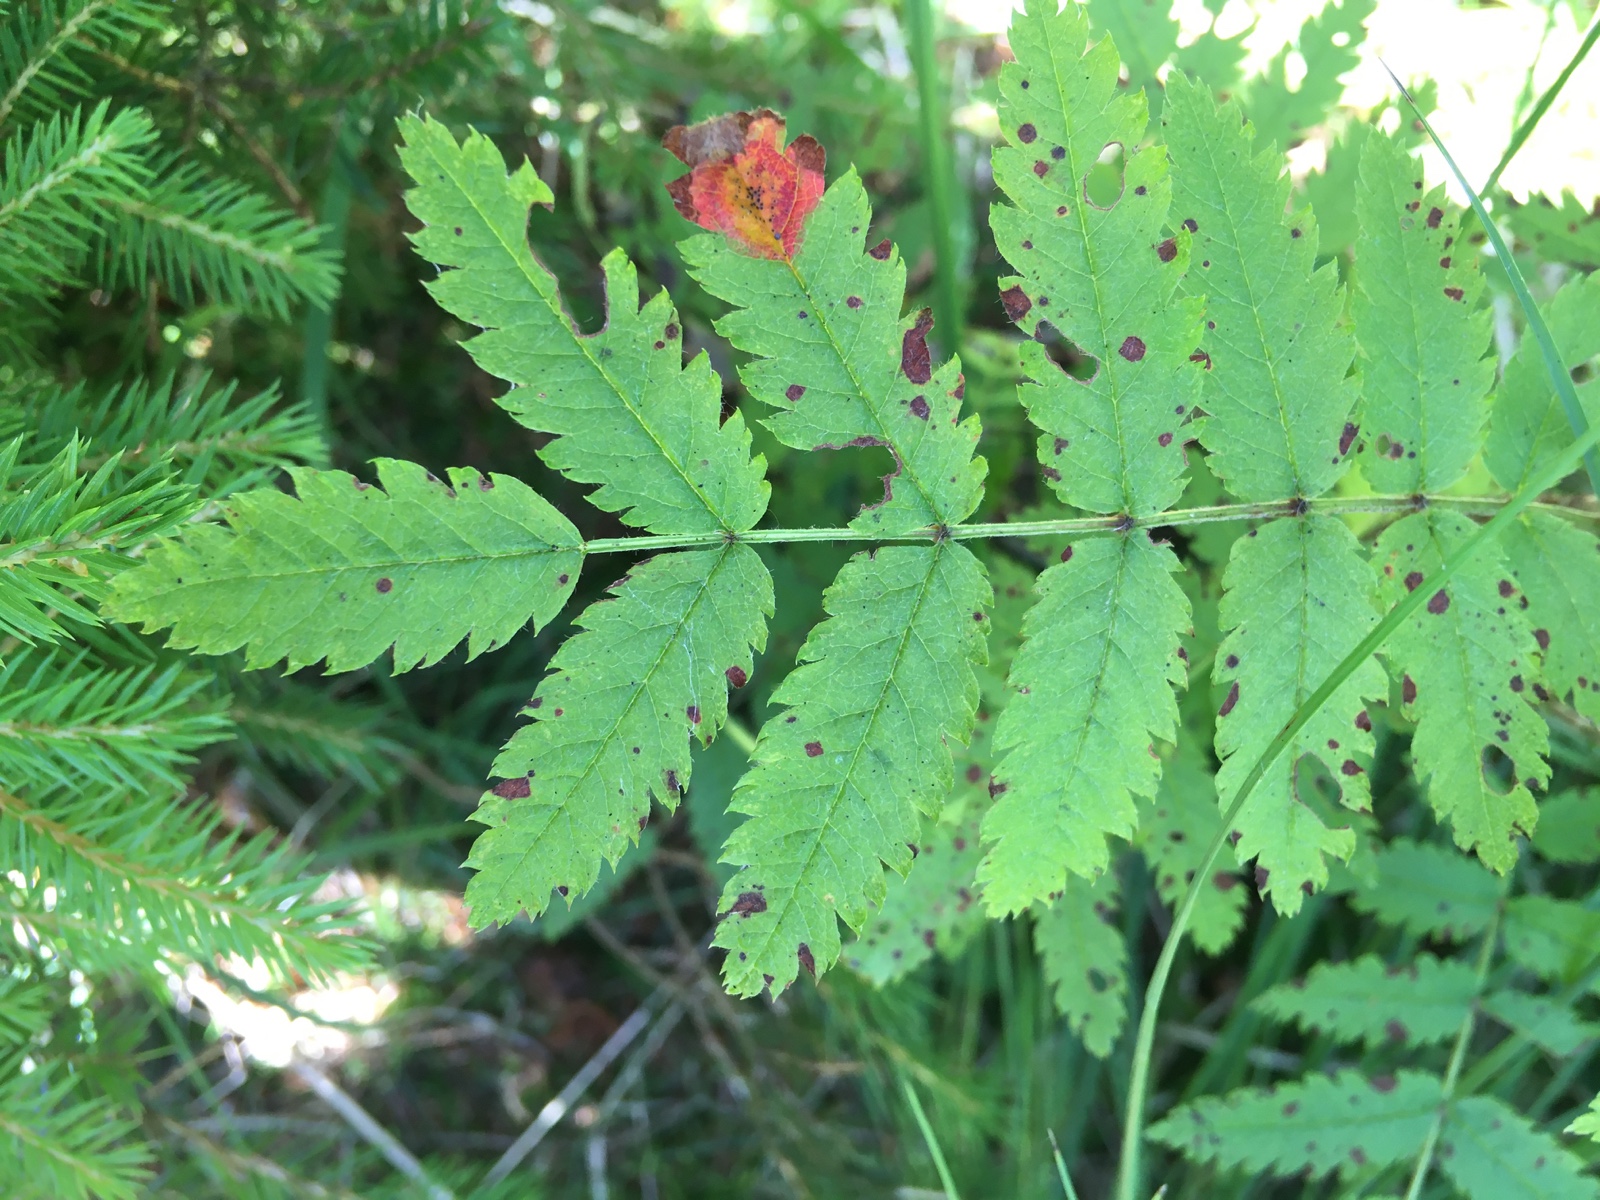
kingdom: Fungi
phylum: Basidiomycota
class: Pucciniomycetes
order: Pucciniales
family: Gymnosporangiaceae
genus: Gymnosporangium
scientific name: Gymnosporangium cornutum
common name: rønnehorn-bævrerust
